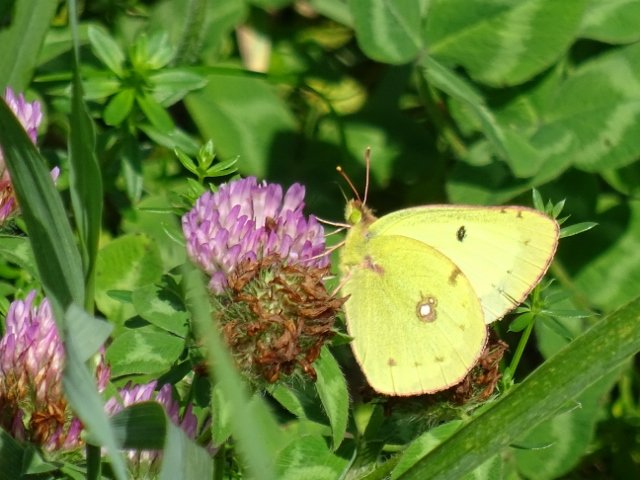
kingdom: Animalia
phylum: Arthropoda
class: Insecta
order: Lepidoptera
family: Pieridae
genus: Colias
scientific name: Colias philodice
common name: Clouded Sulphur
